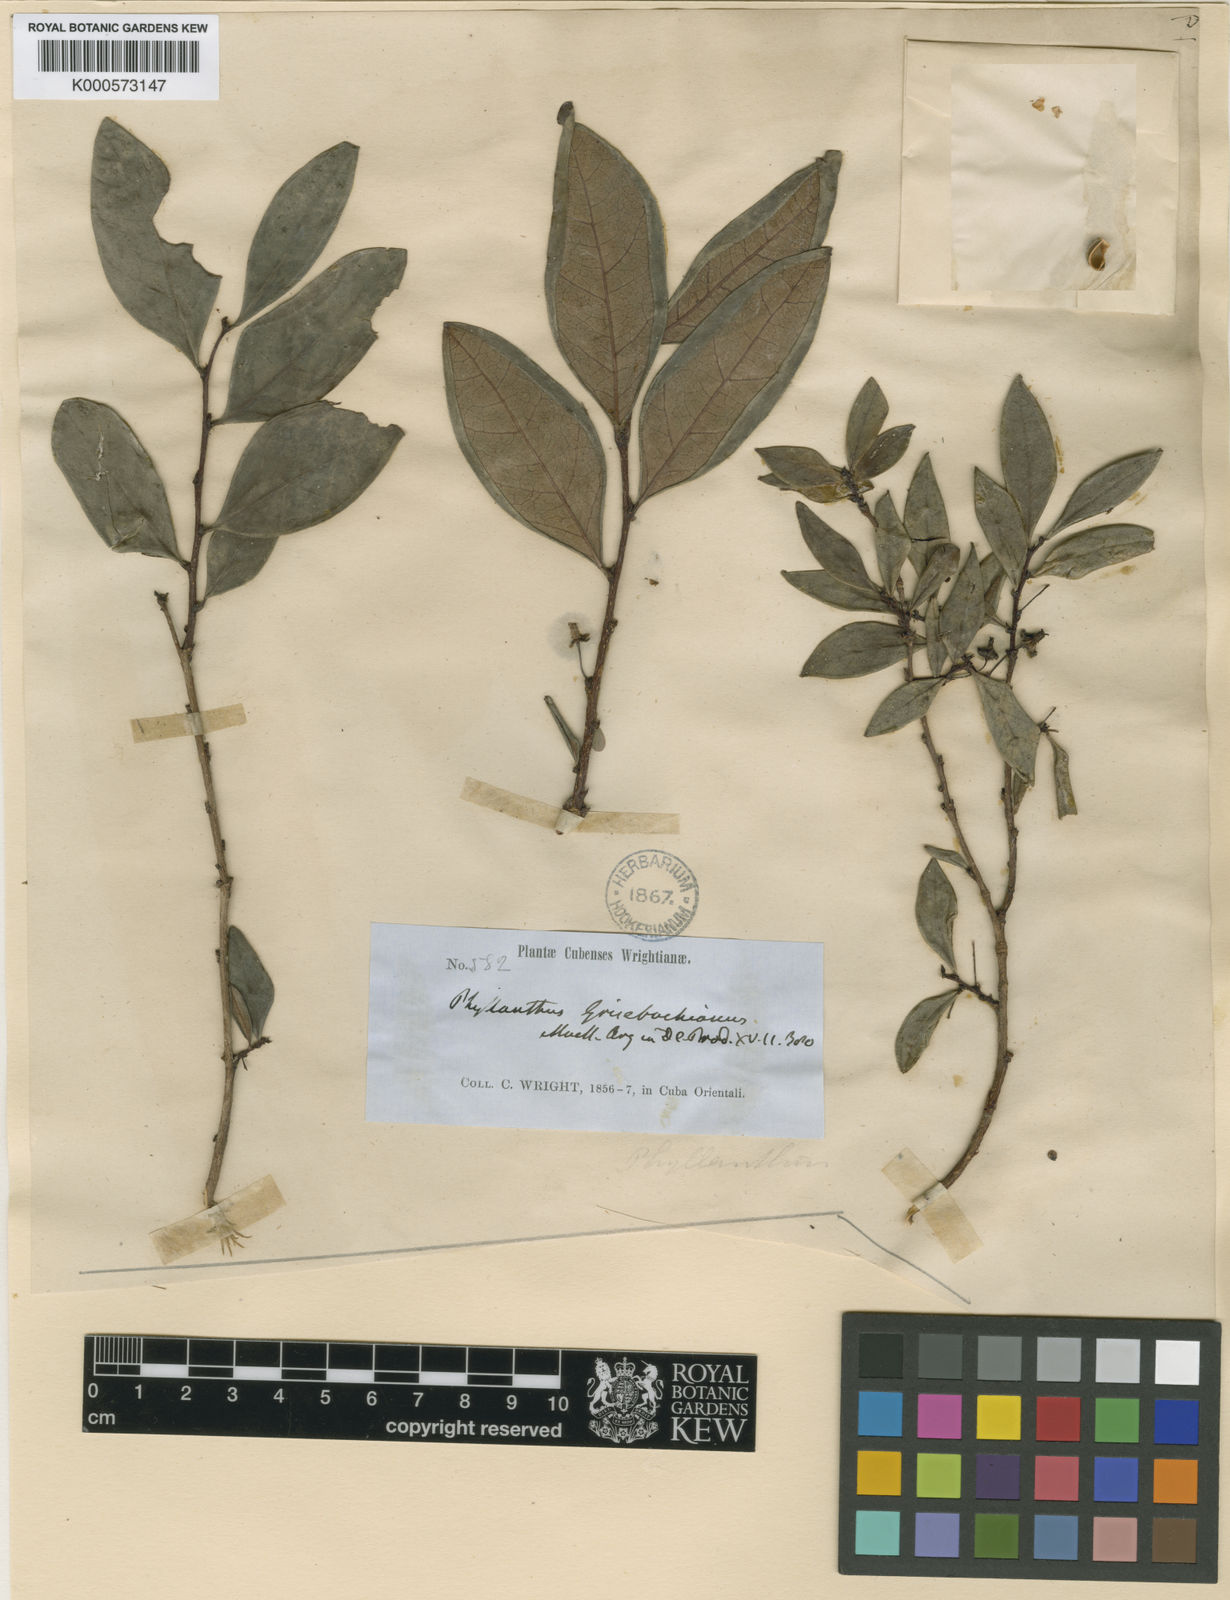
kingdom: Plantae
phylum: Tracheophyta
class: Magnoliopsida
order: Malpighiales
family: Phyllanthaceae
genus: Phyllanthus
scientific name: Phyllanthus
